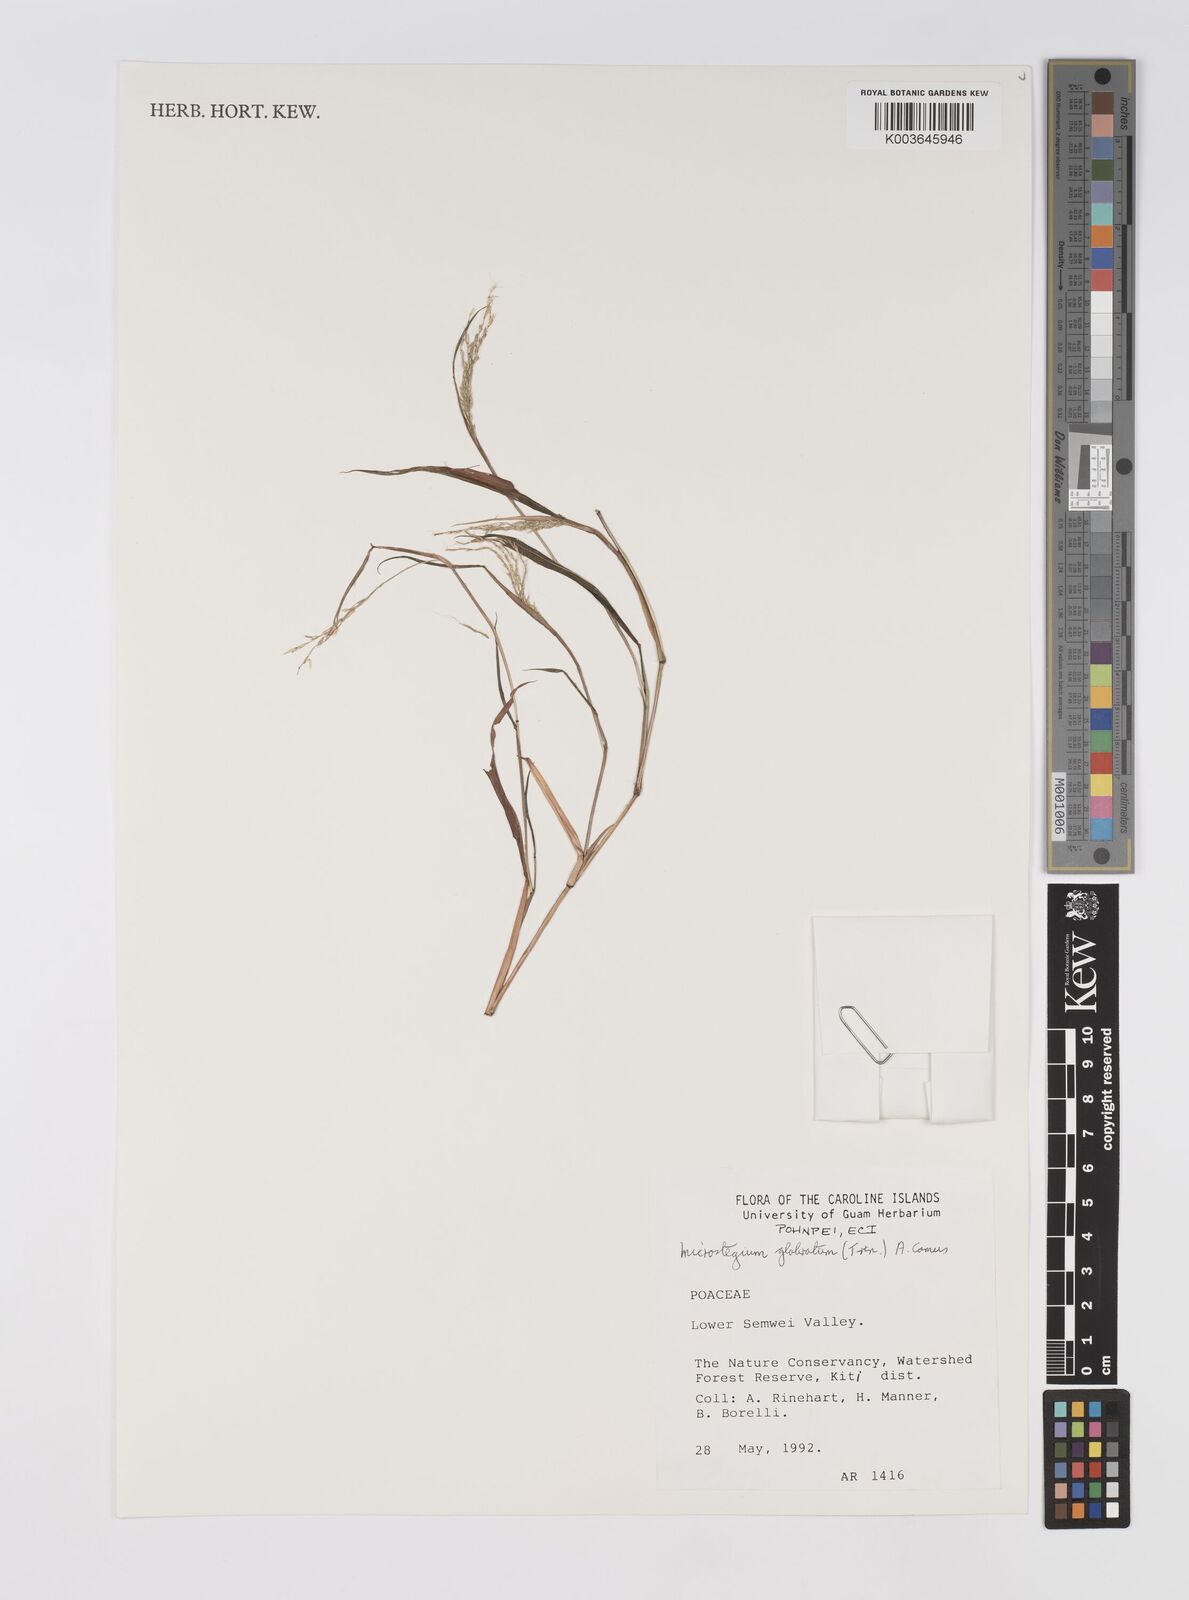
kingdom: Plantae
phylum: Tracheophyta
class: Liliopsida
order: Poales
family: Poaceae
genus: Microstegium
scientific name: Microstegium glabratum
